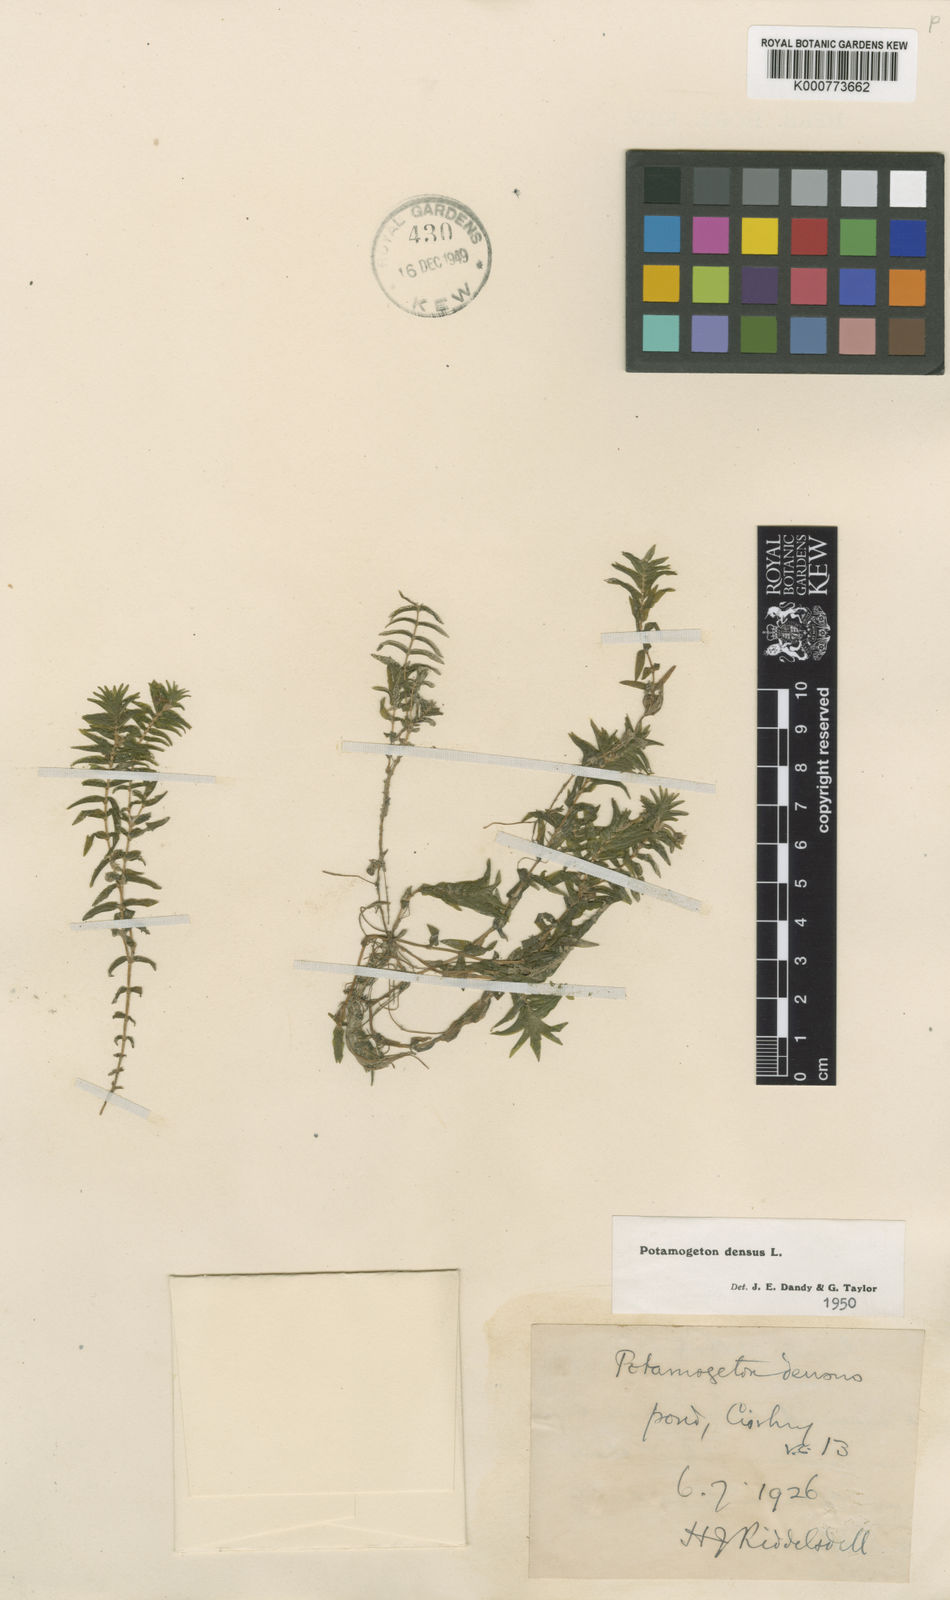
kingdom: Plantae
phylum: Tracheophyta
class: Liliopsida
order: Alismatales
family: Potamogetonaceae
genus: Groenlandia
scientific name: Groenlandia densa
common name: Opposite-leaved pondweed
